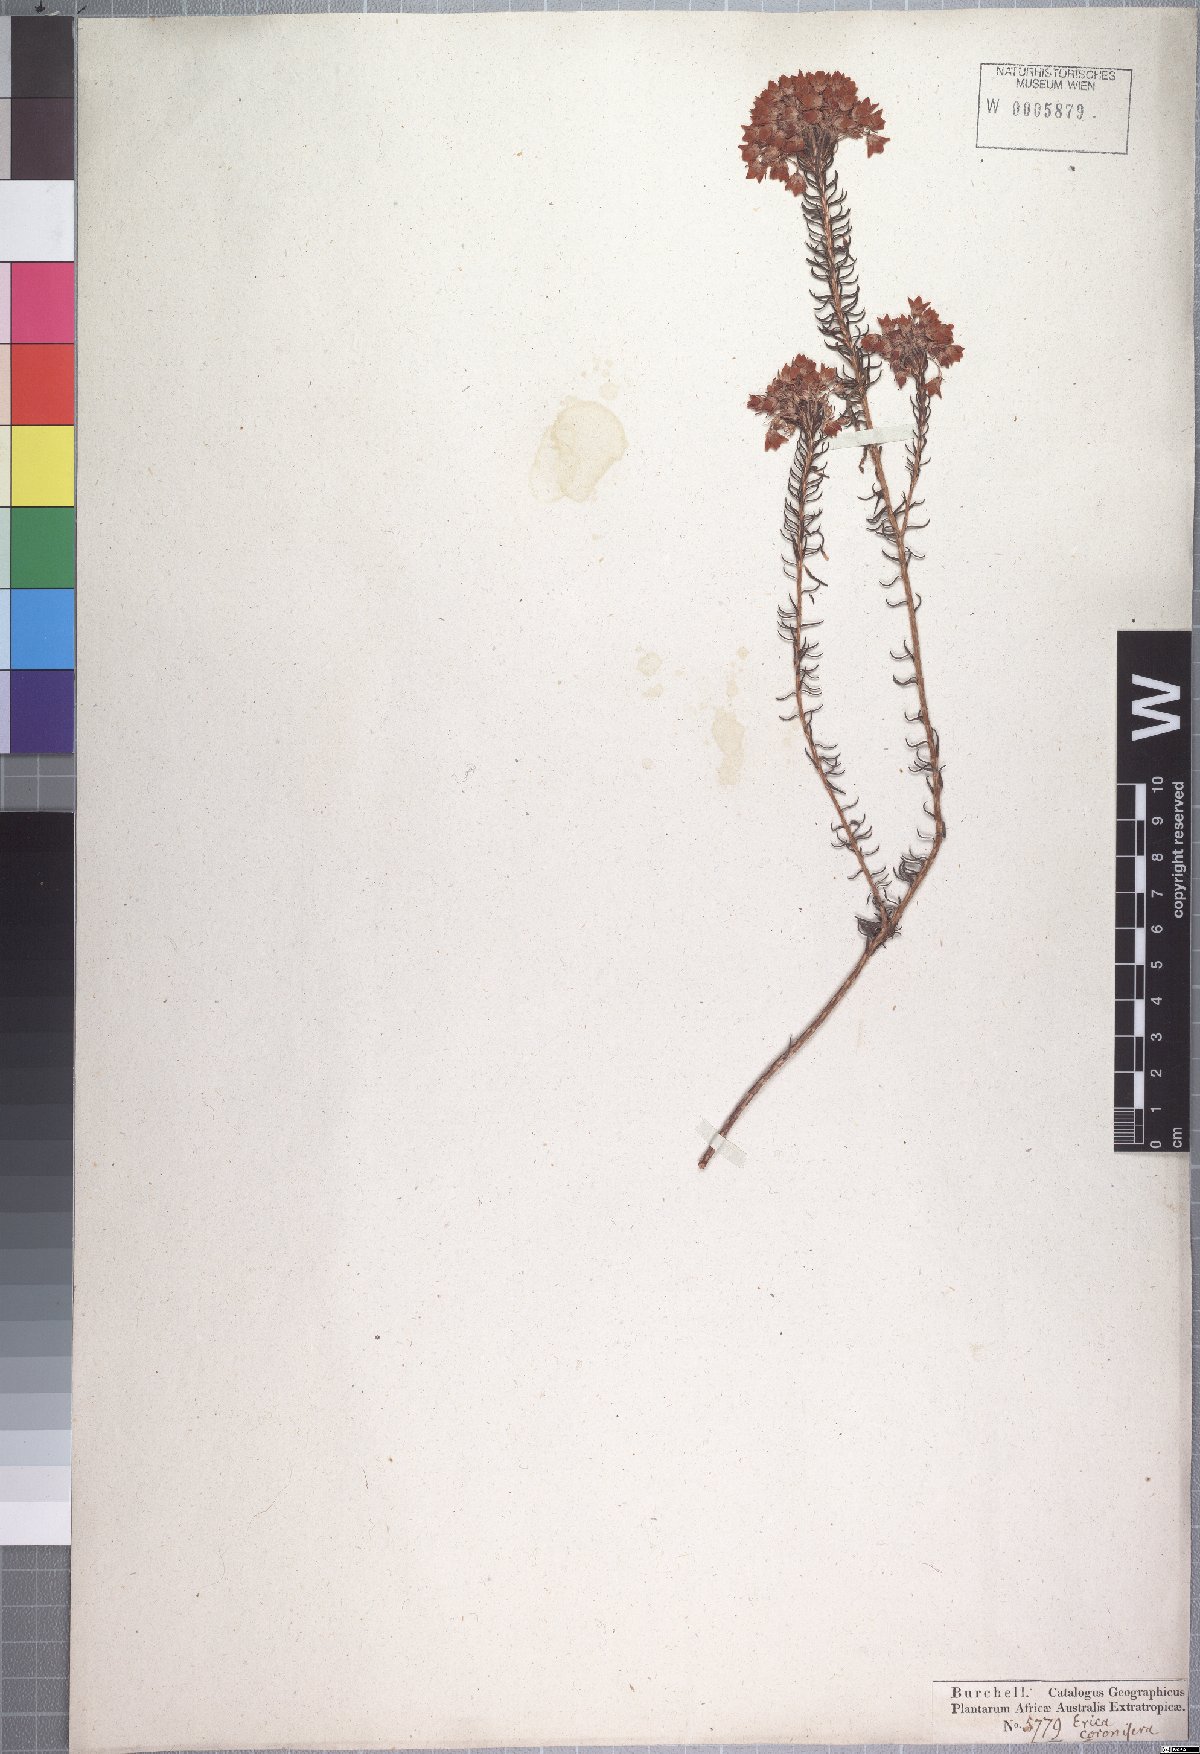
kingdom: Plantae
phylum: Tracheophyta
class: Magnoliopsida
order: Ericales
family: Ericaceae
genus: Erica
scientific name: Erica cubica
